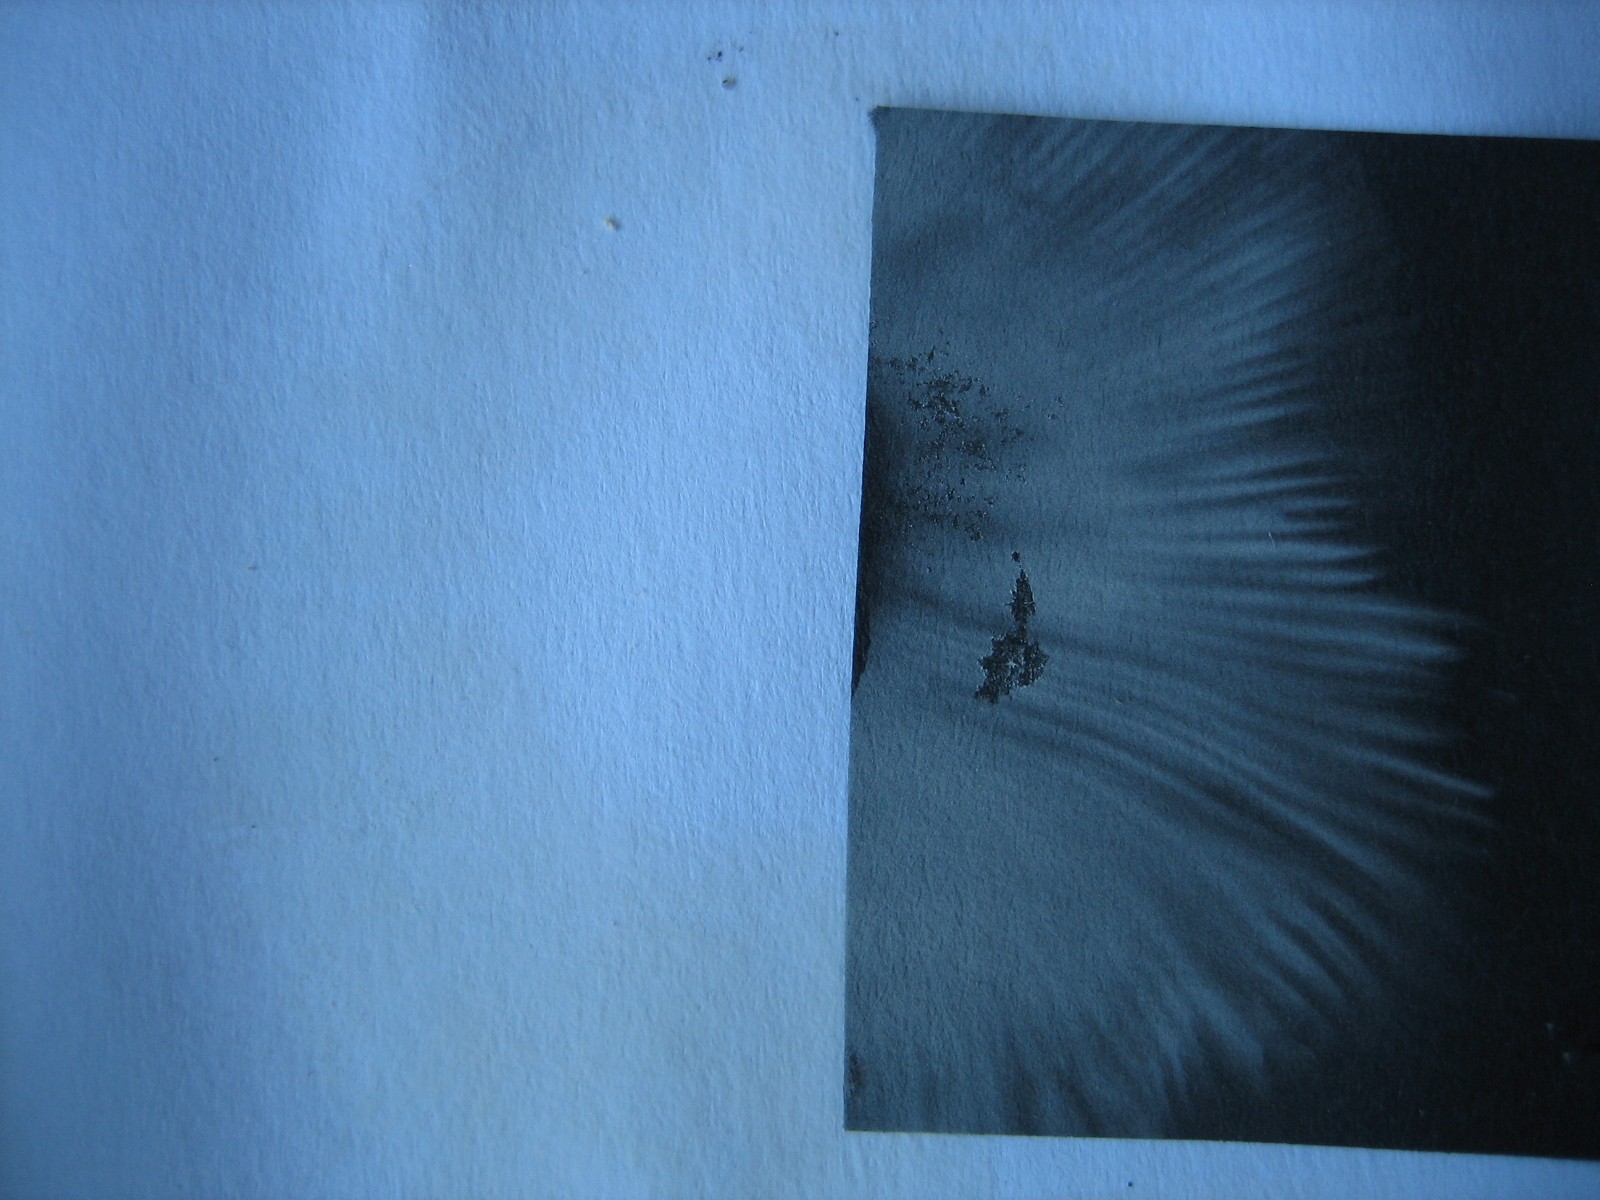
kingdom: Fungi
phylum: Basidiomycota
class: Agaricomycetes
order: Russulales
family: Russulaceae
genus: Russula
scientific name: Russula
